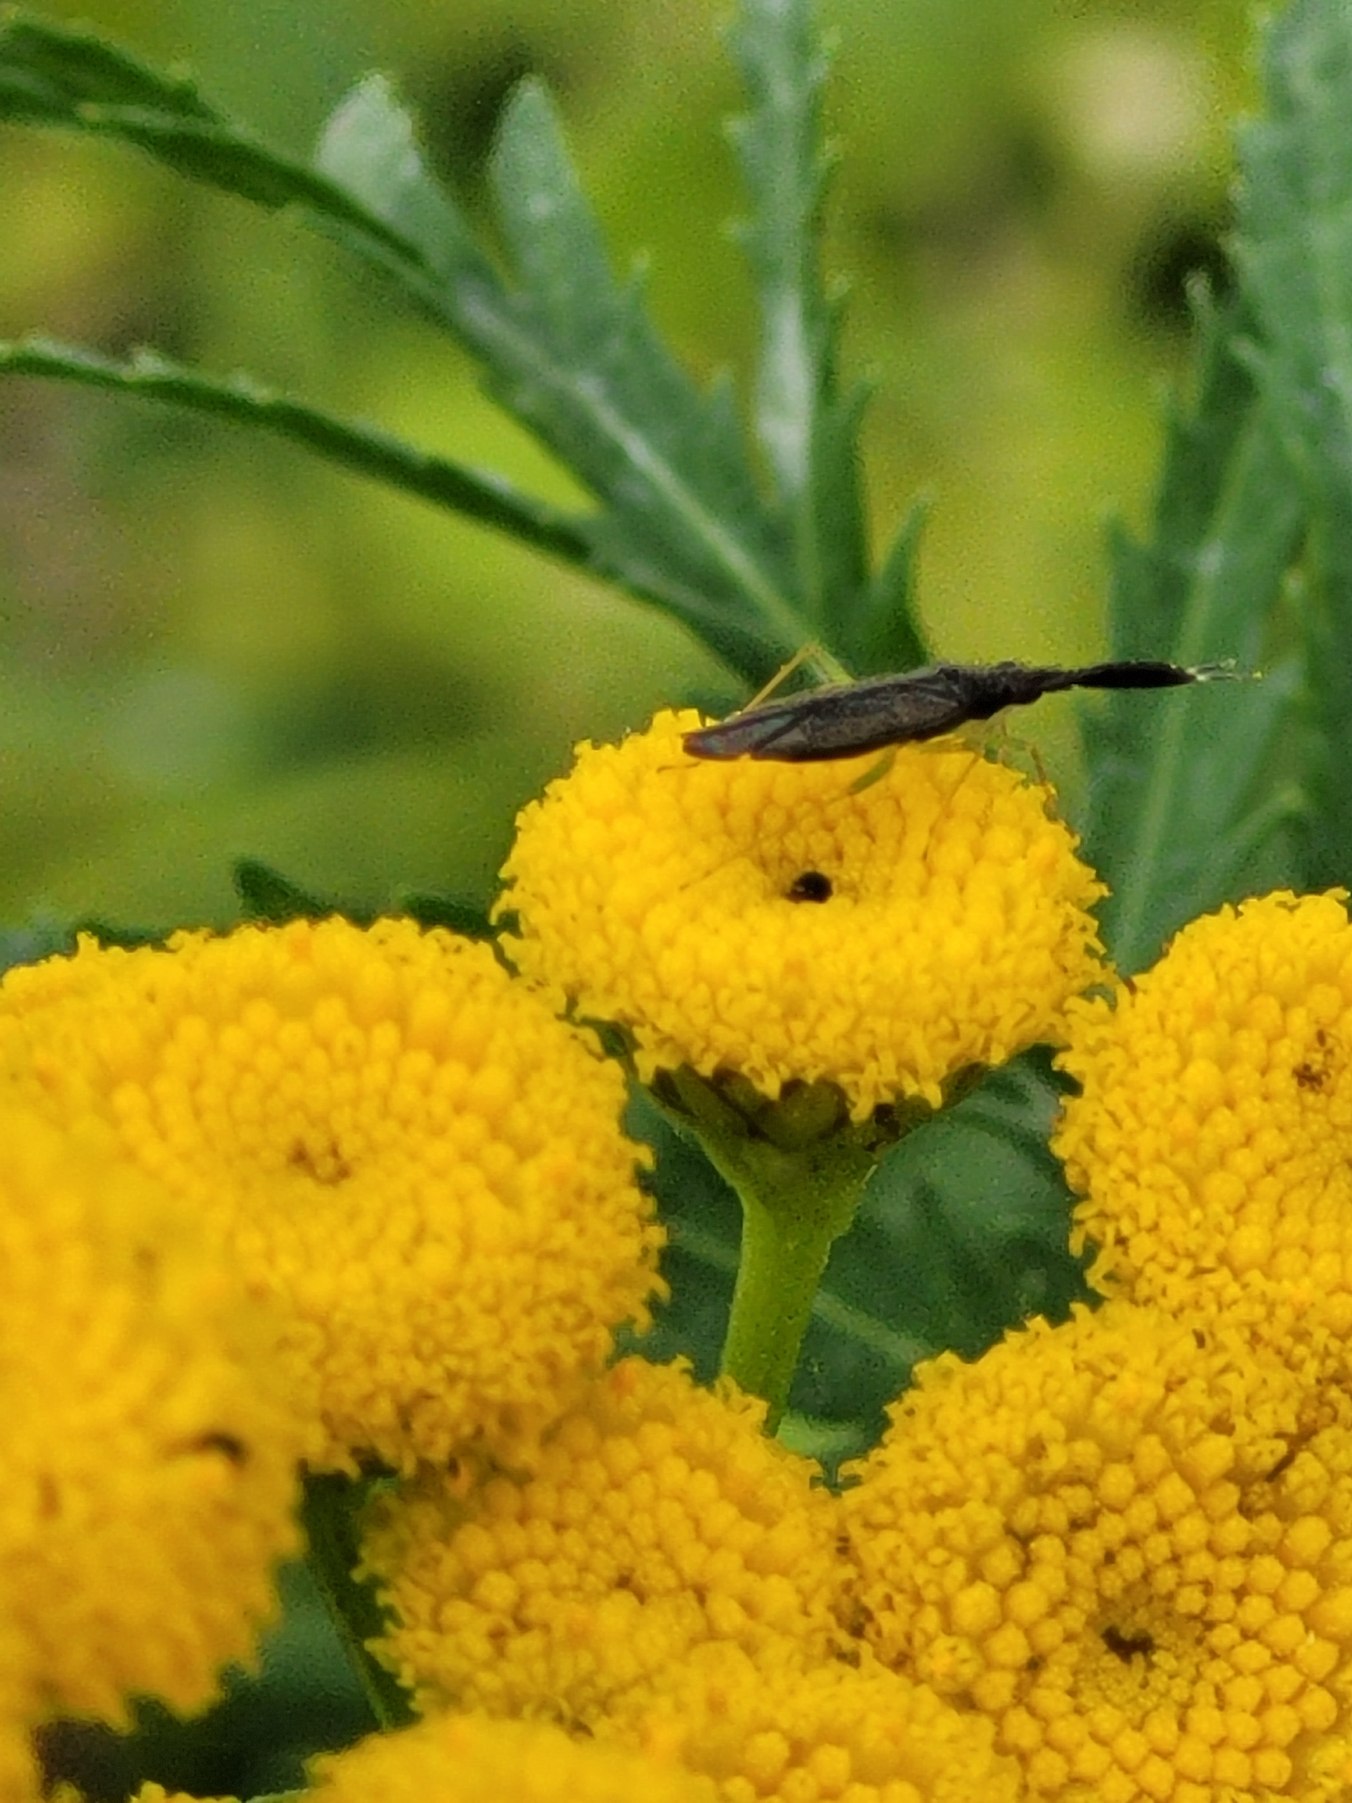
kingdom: Animalia
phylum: Arthropoda
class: Insecta
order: Hemiptera
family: Miridae
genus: Heterotoma
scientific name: Heterotoma planicornis
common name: Køllehornet blomstertæge
